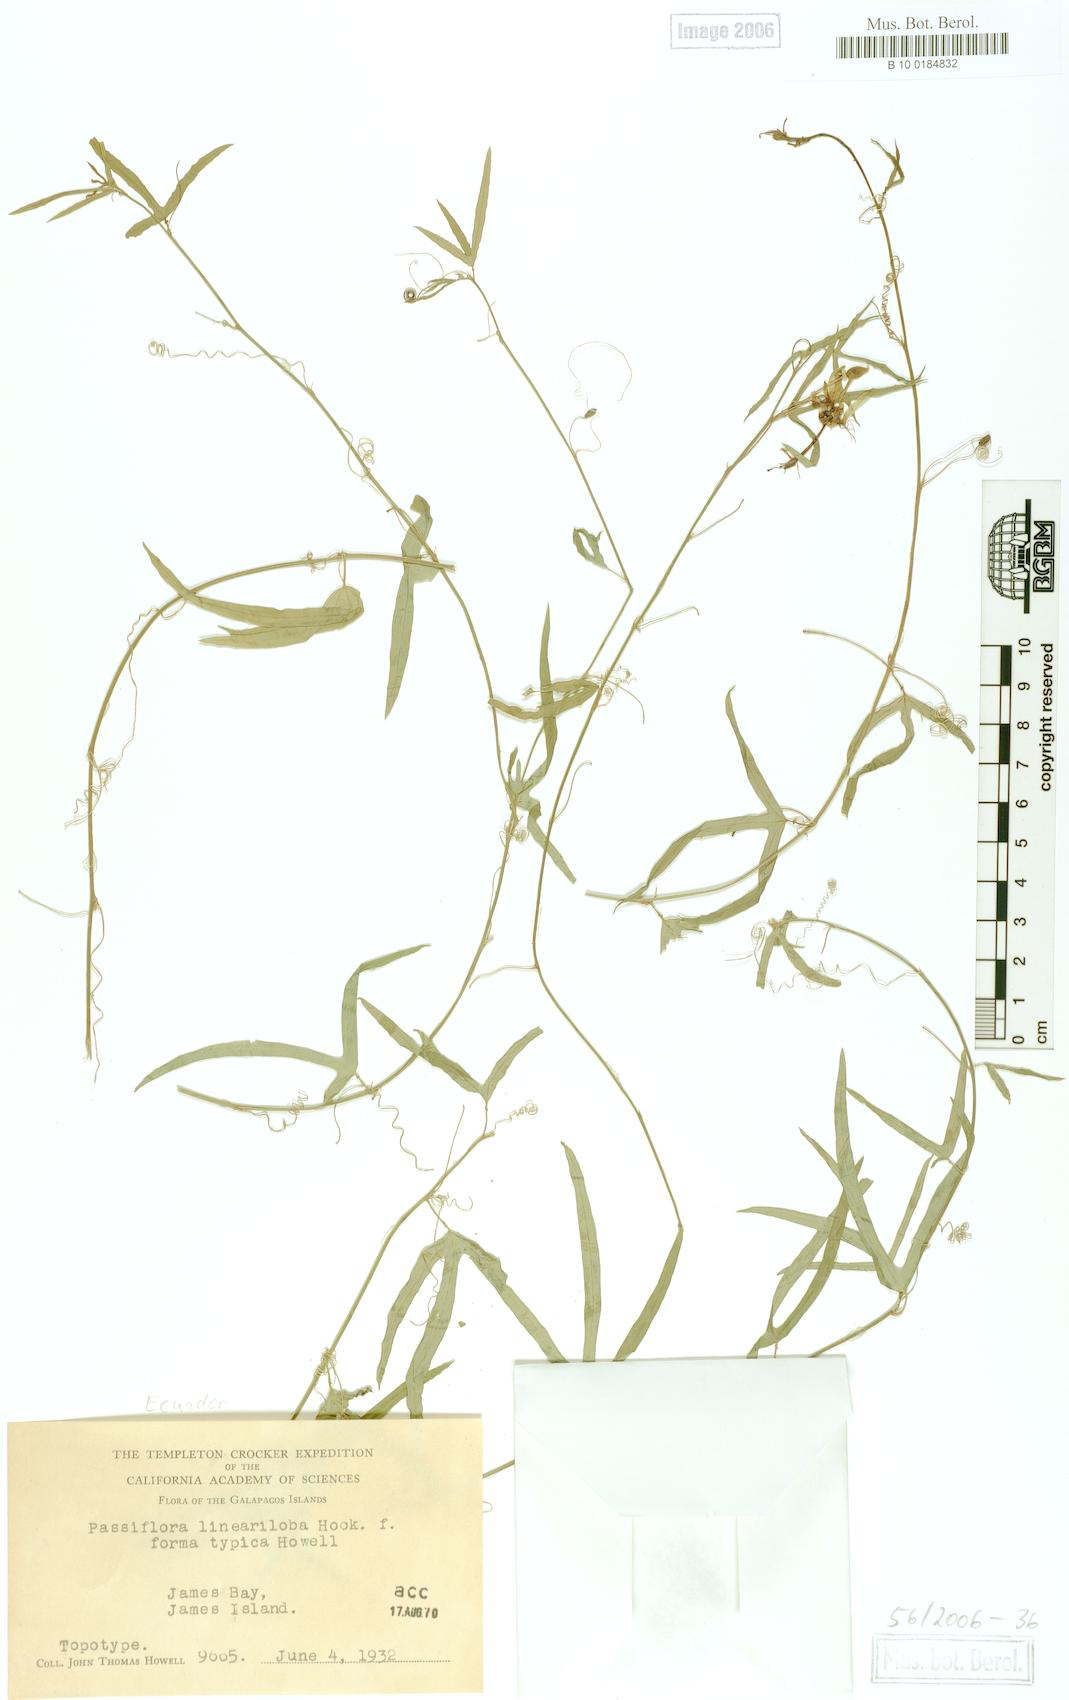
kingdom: Plantae
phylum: Tracheophyta
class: Magnoliopsida
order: Malpighiales
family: Passifloraceae
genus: Passiflora
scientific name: Passiflora suberosa
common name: Wild passionfruit
